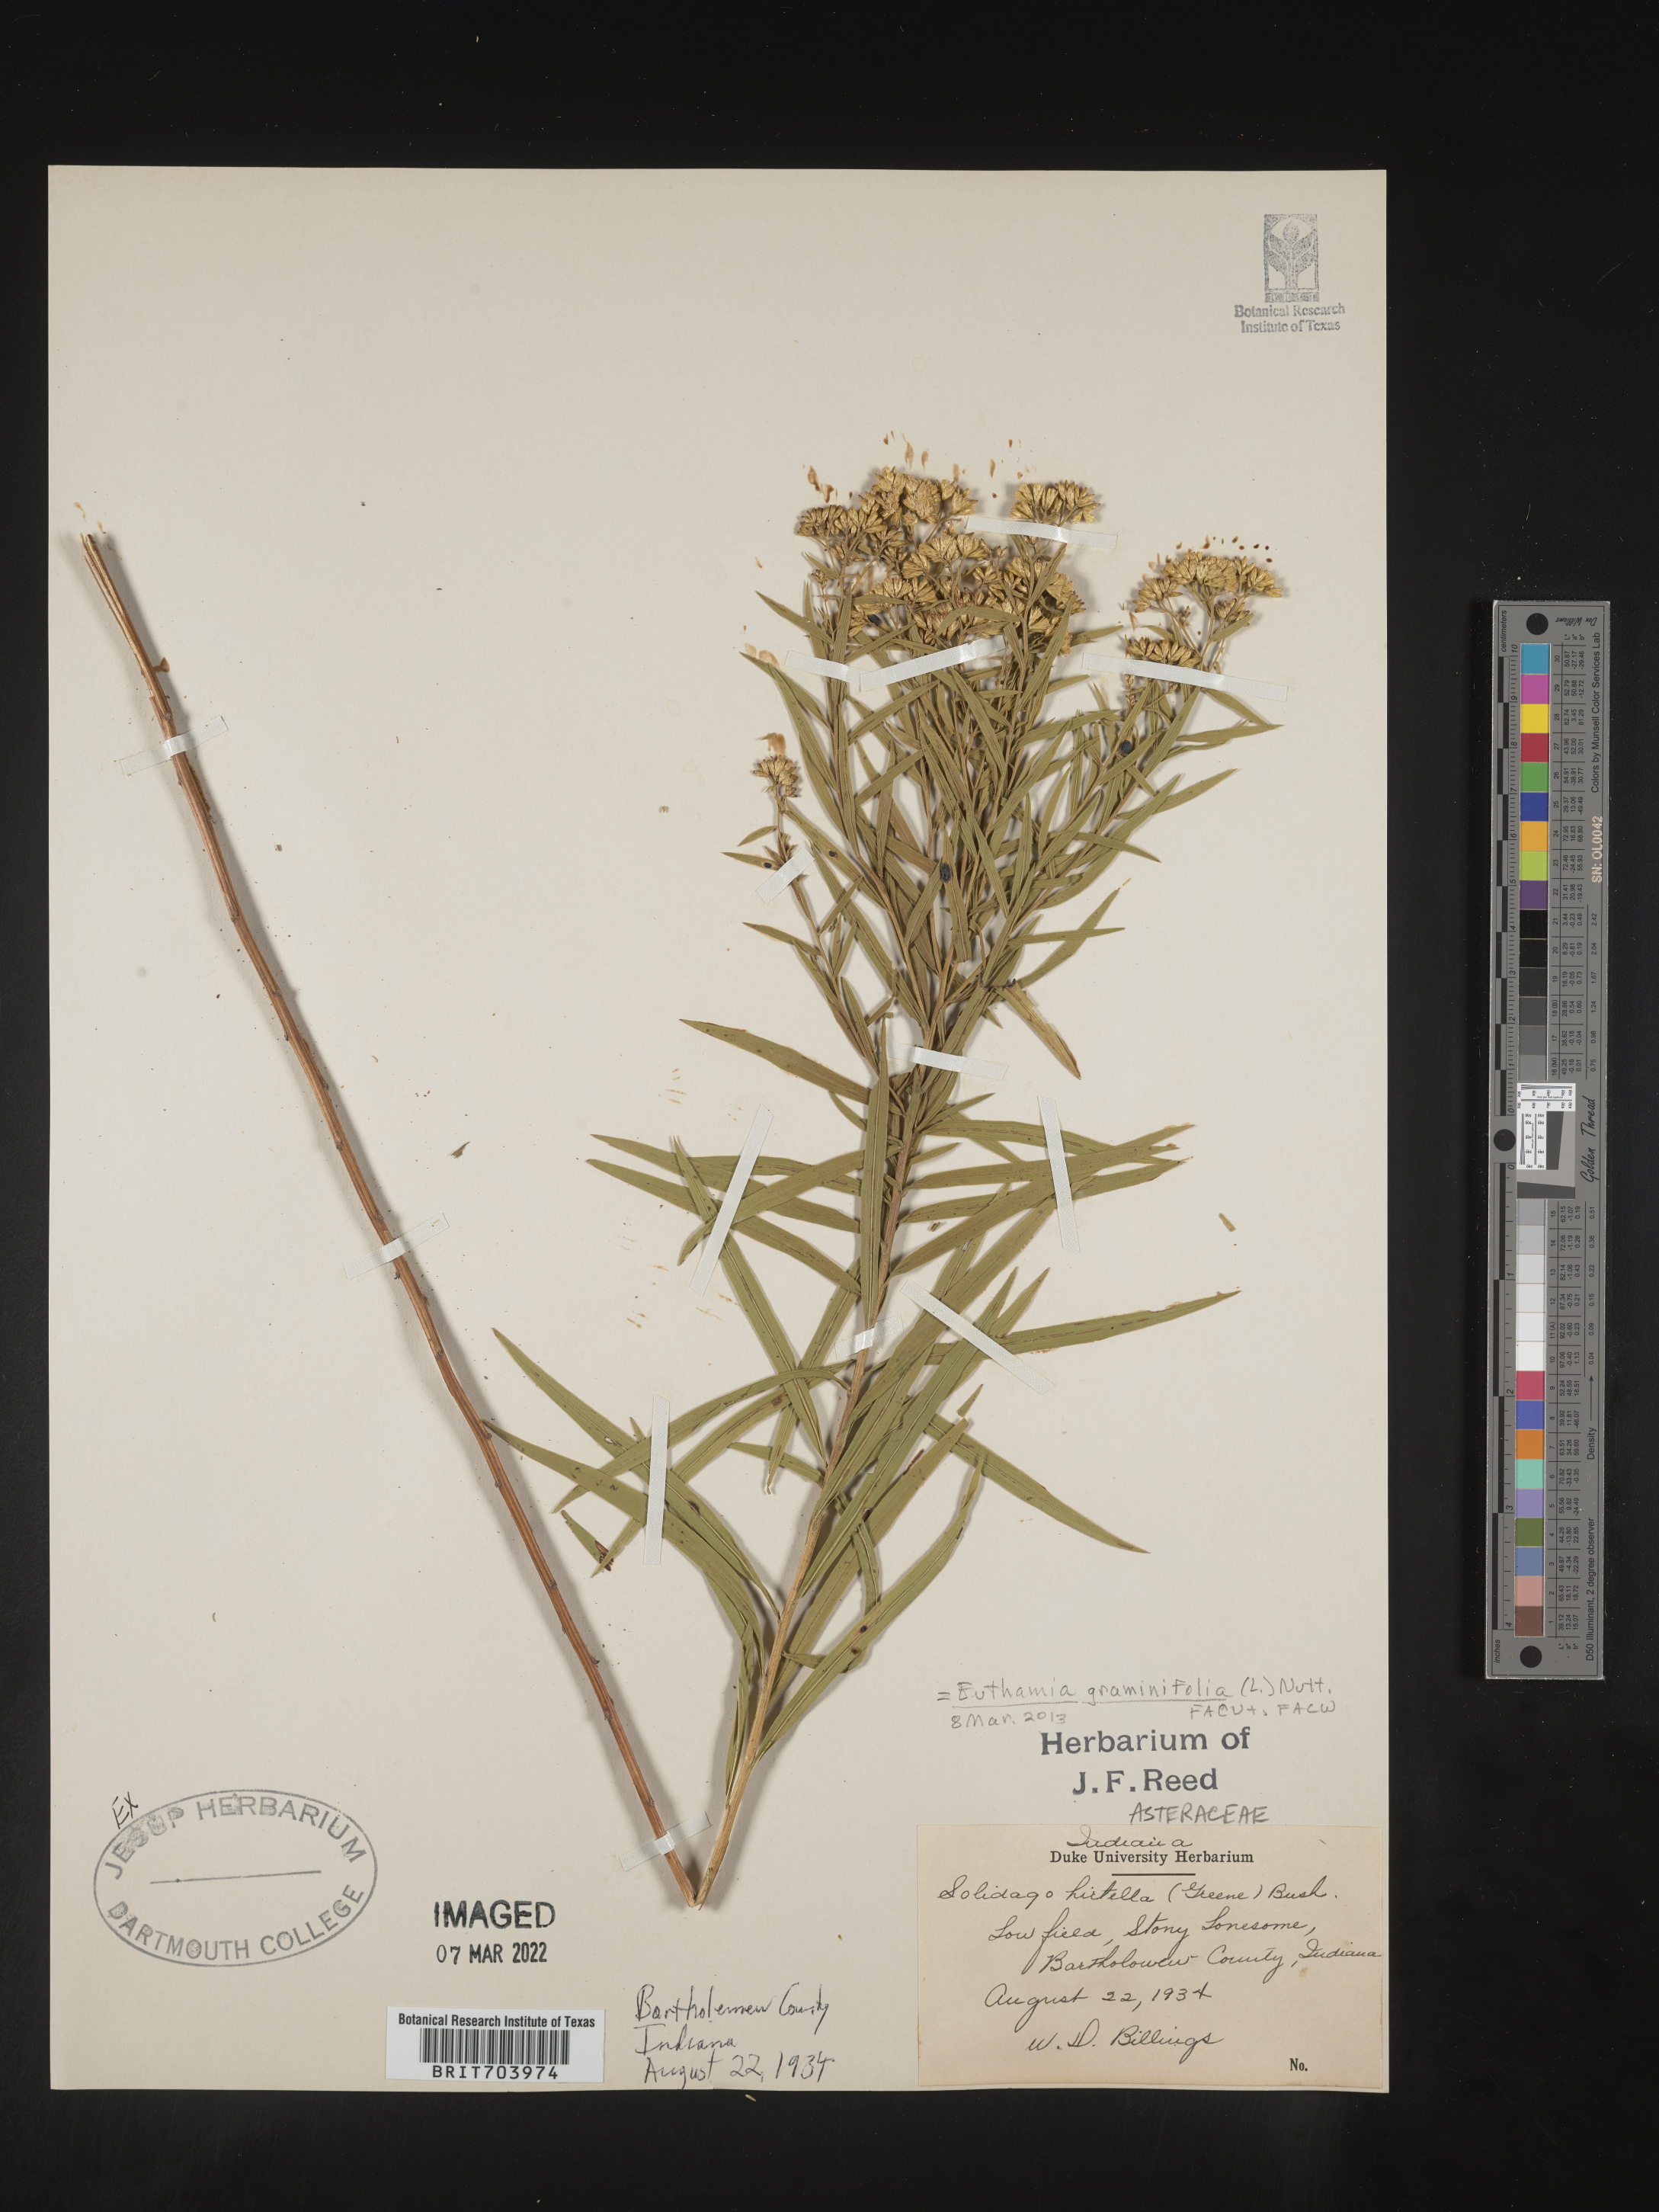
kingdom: Plantae
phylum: Tracheophyta
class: Magnoliopsida
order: Asterales
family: Asteraceae
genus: Euthamia
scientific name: Euthamia graminifolia
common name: Common goldentop
